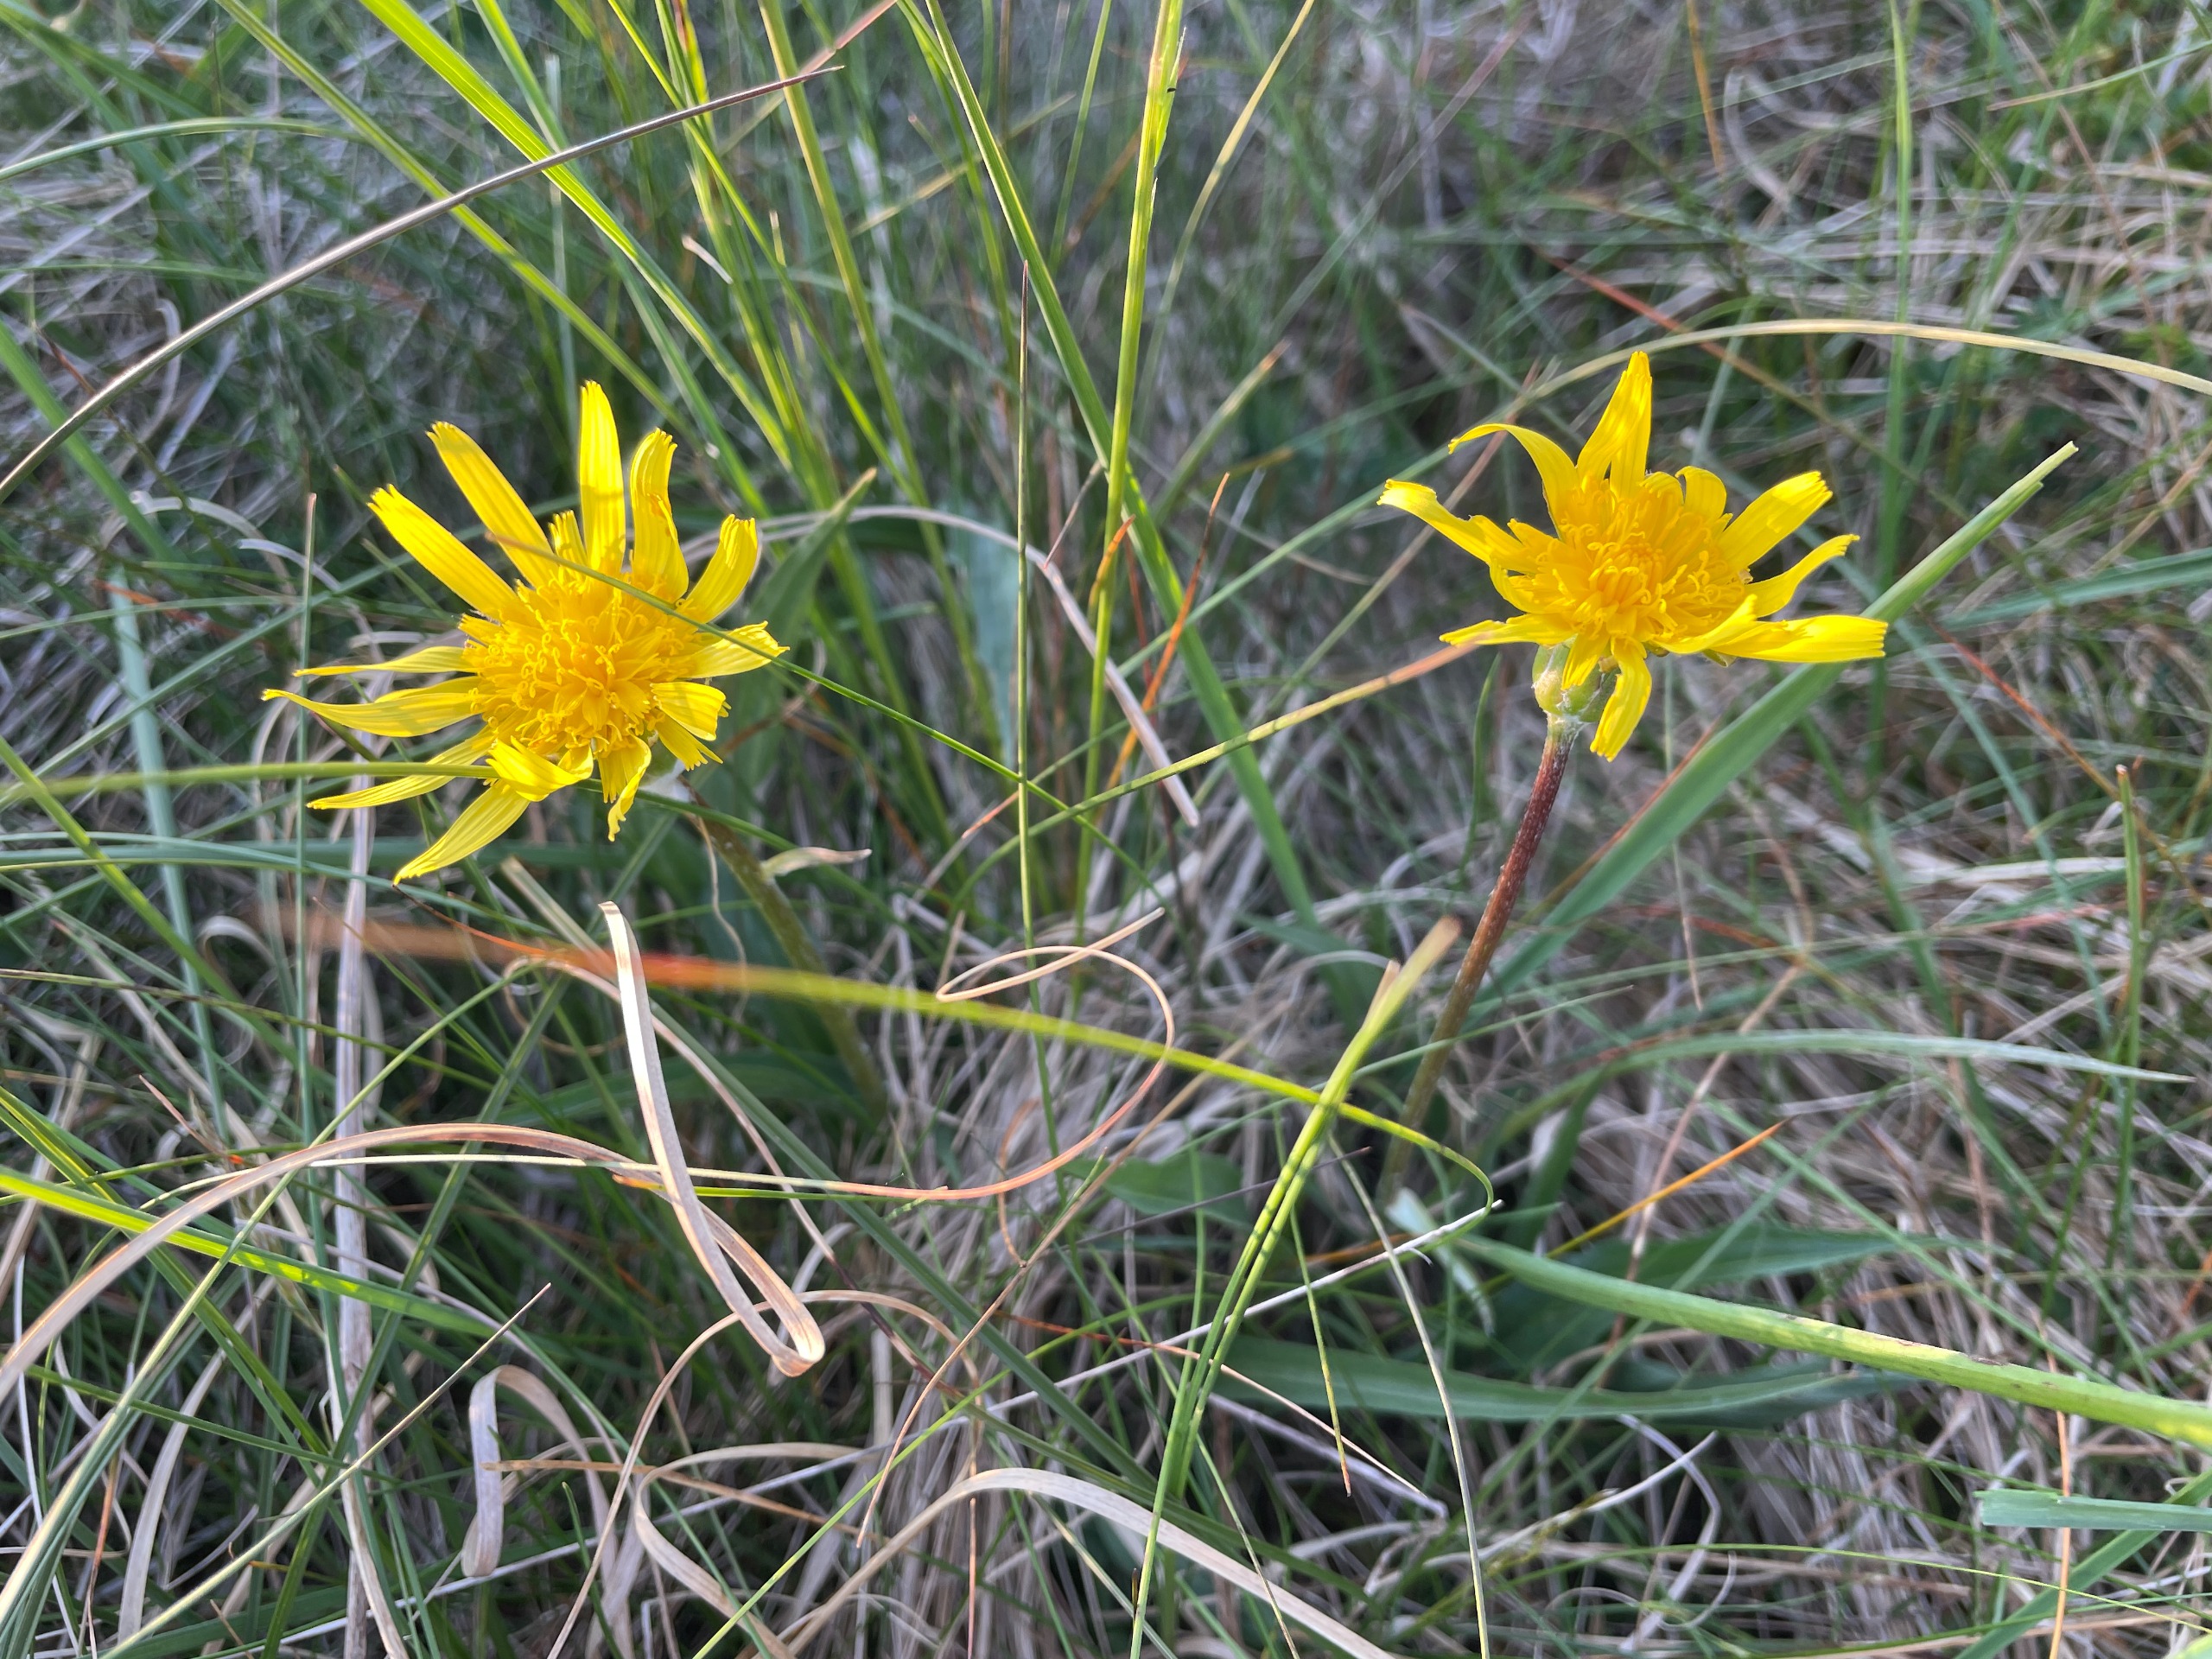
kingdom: Plantae
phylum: Tracheophyta
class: Magnoliopsida
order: Asterales
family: Asteraceae
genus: Scorzonera
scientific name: Scorzonera humilis
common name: Lav skorsoner
